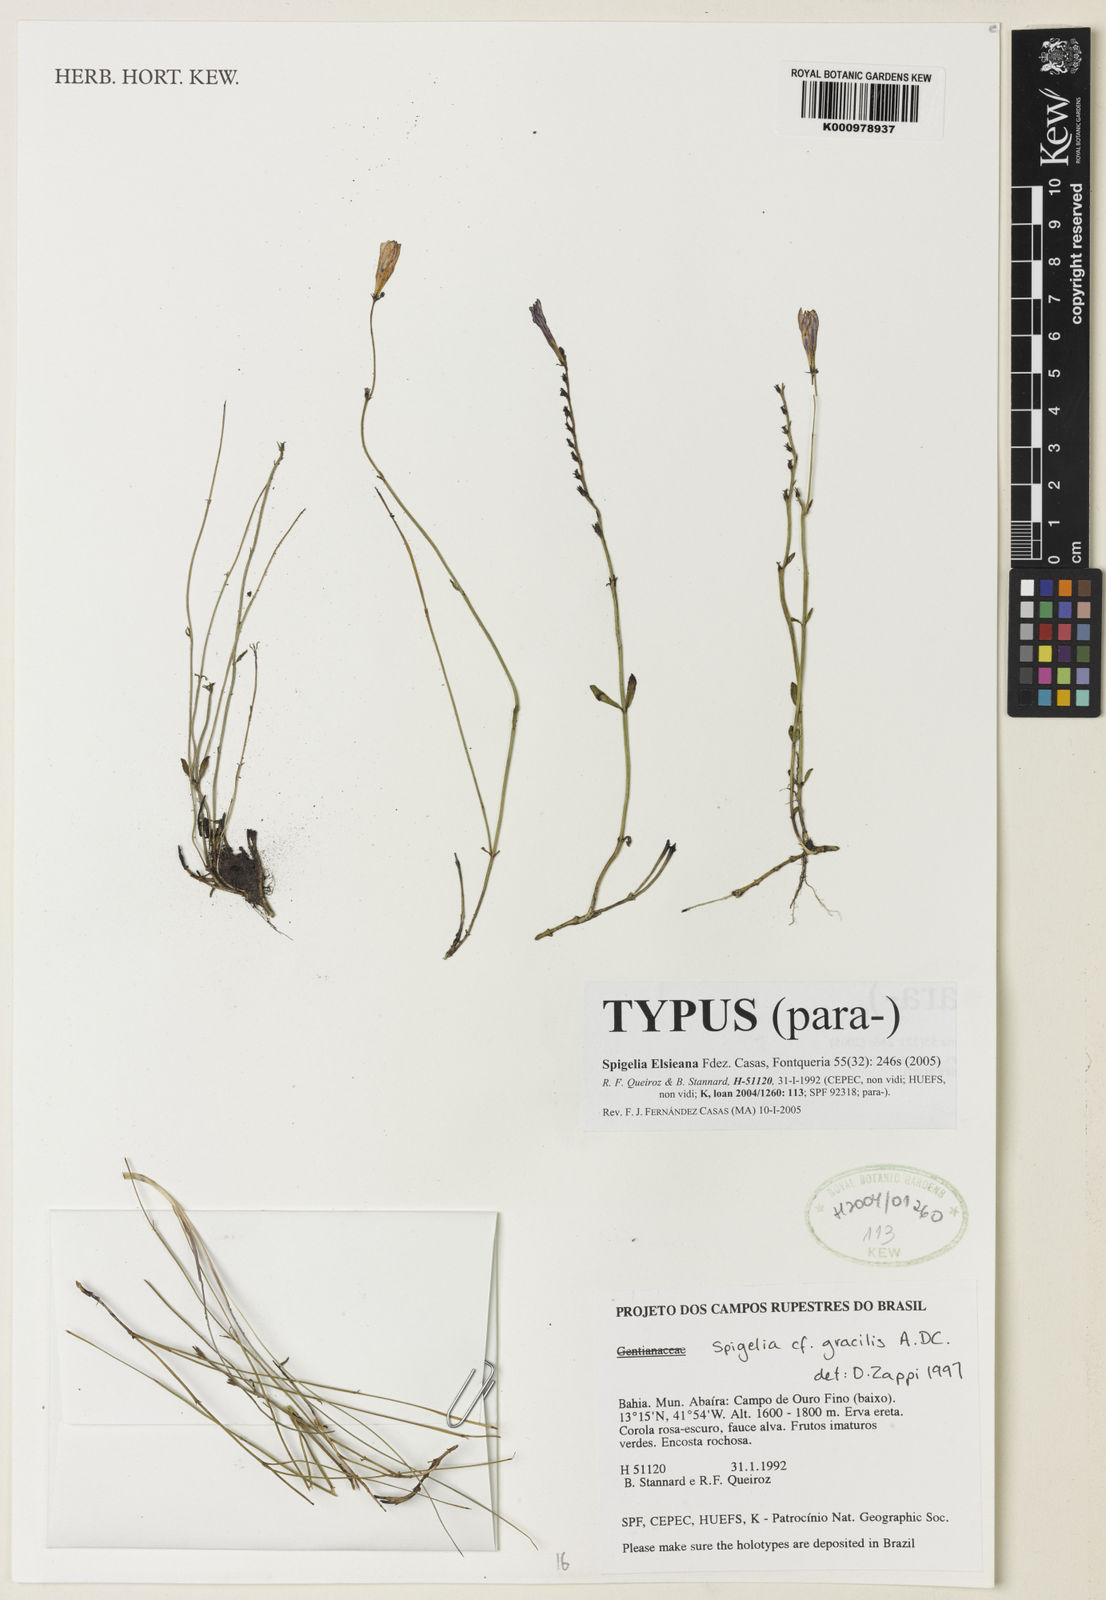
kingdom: Plantae
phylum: Tracheophyta
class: Magnoliopsida
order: Gentianales
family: Loganiaceae
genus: Spigelia
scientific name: Spigelia
